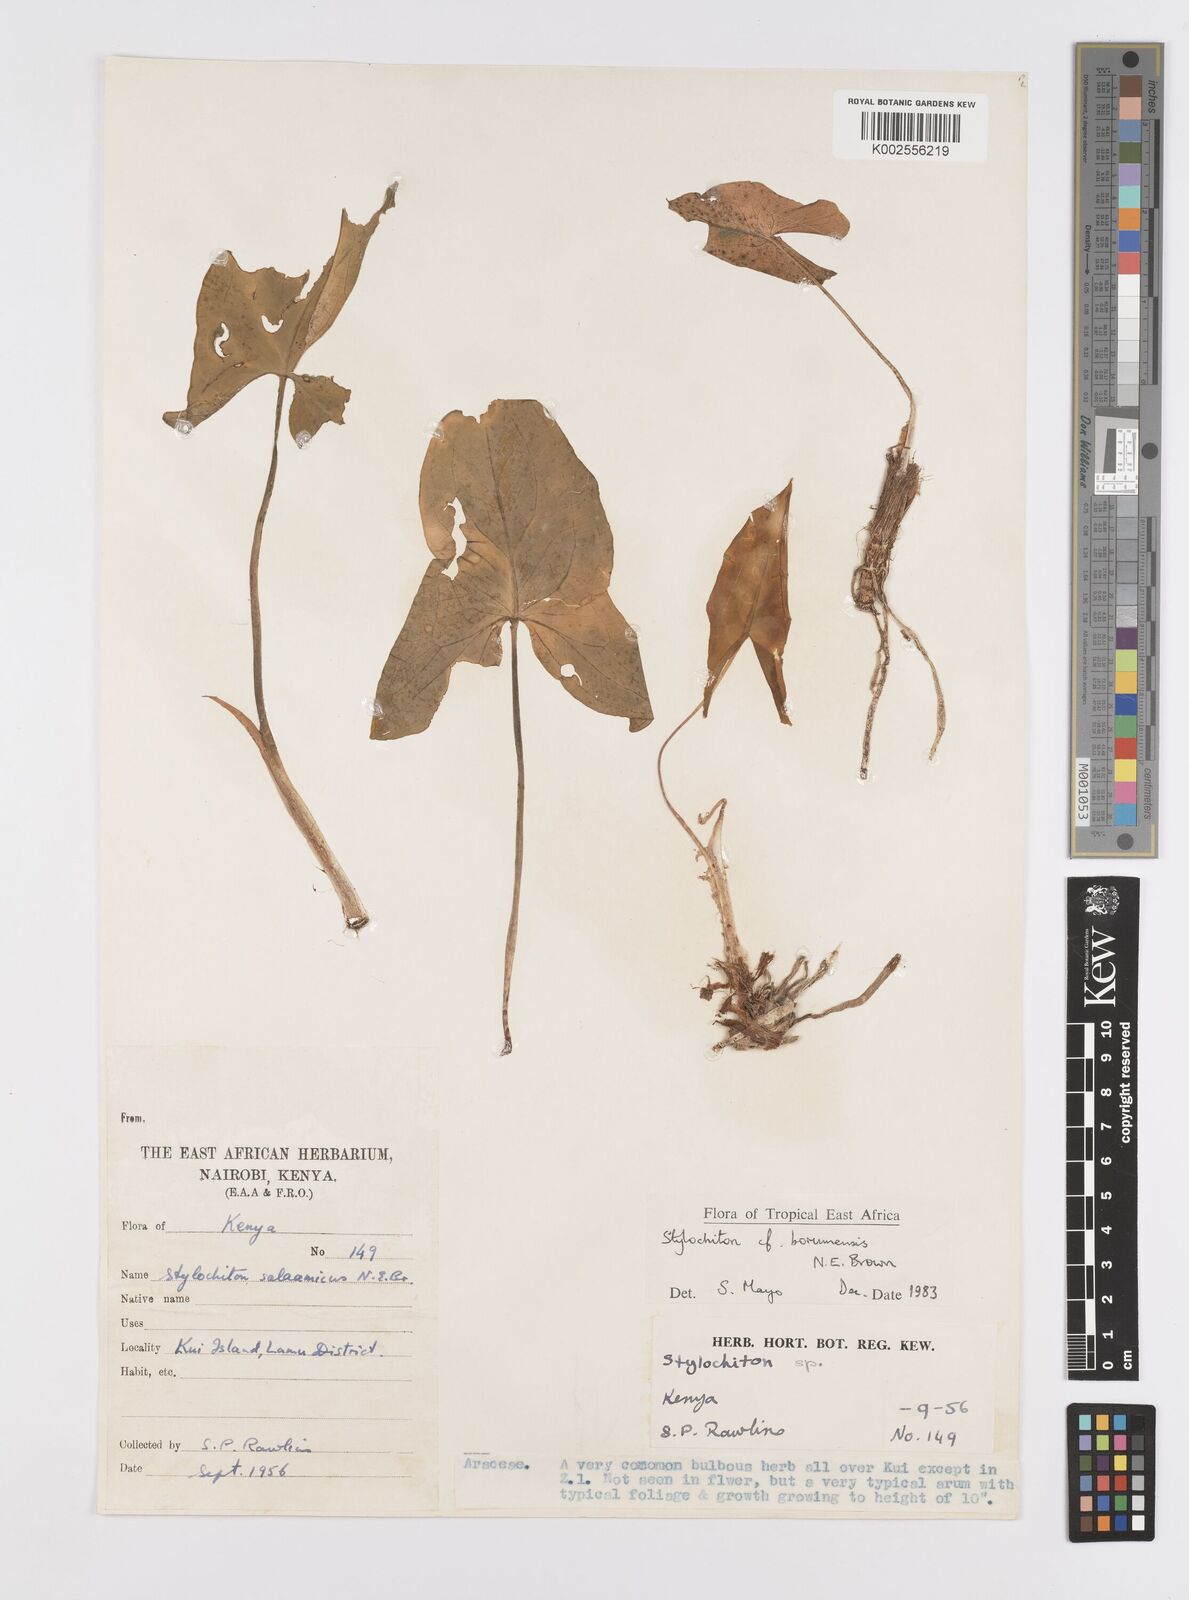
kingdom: Plantae
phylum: Tracheophyta
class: Liliopsida
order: Alismatales
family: Araceae
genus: Stylochaeton
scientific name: Stylochaeton borumense
